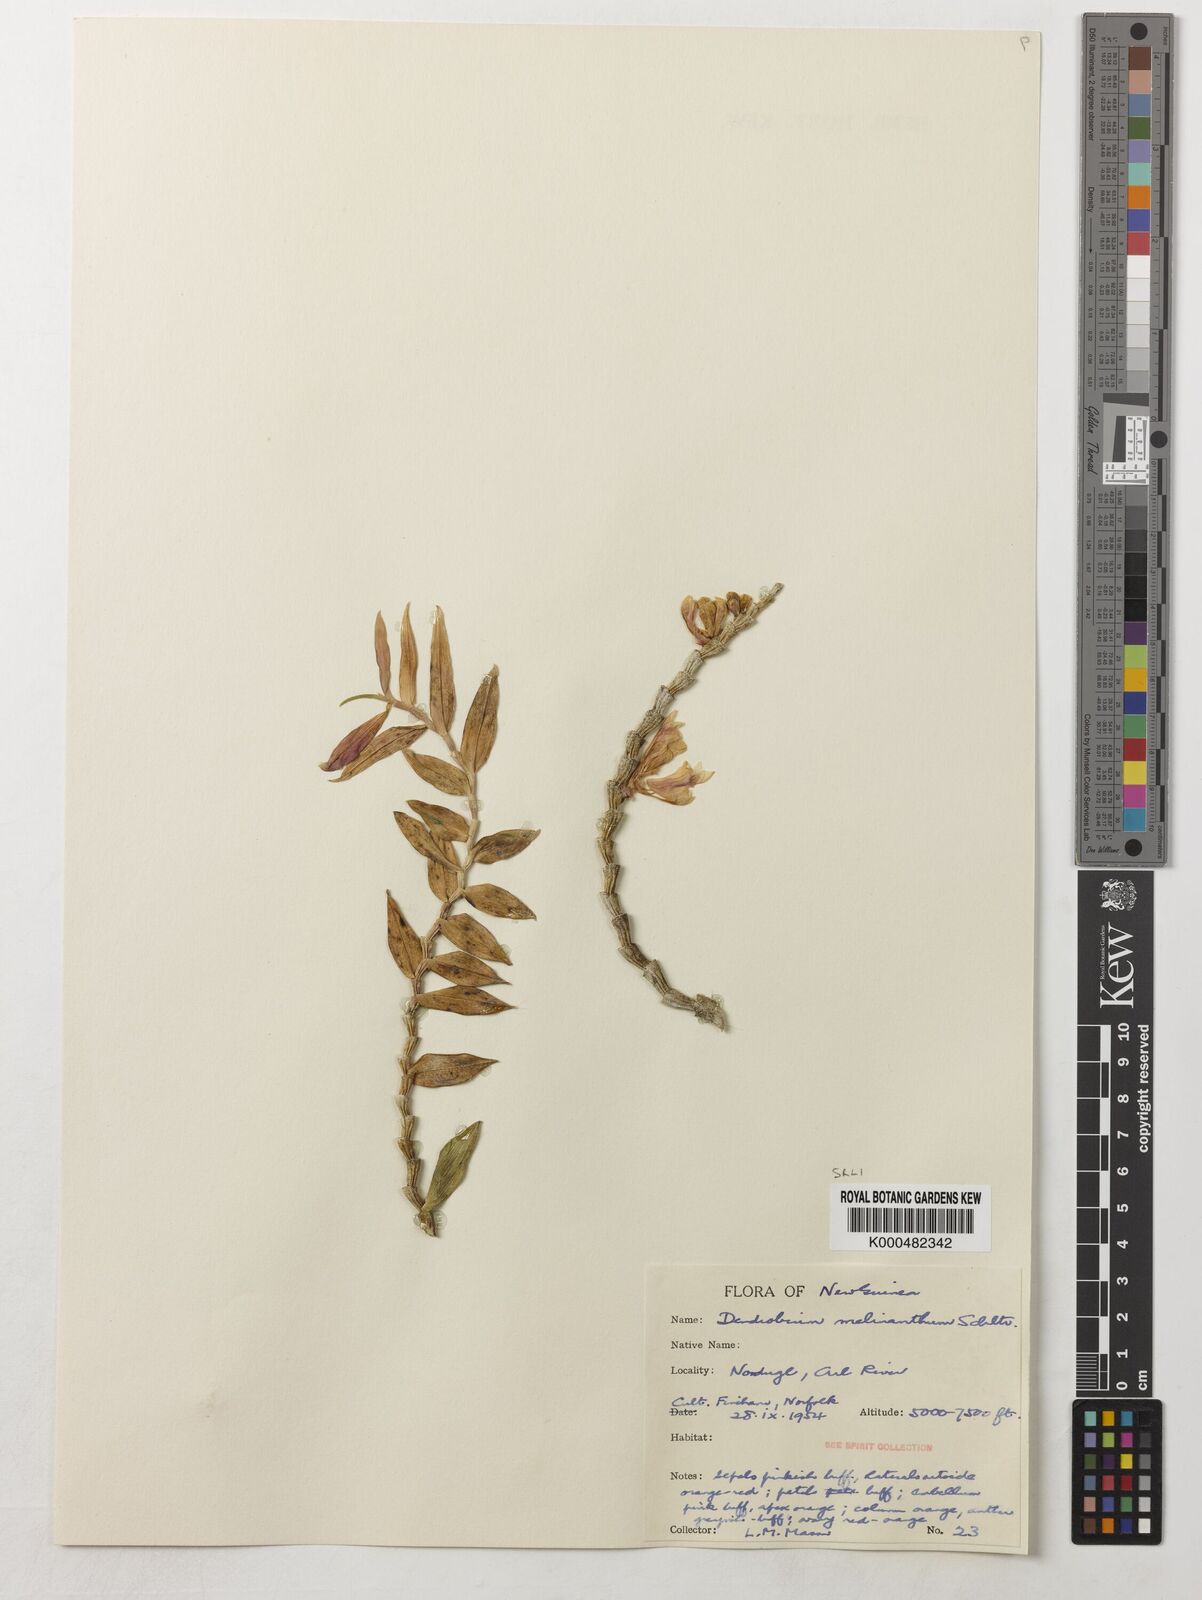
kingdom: Plantae
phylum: Tracheophyta
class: Liliopsida
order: Asparagales
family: Orchidaceae
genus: Dendrobium
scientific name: Dendrobium melinanthum
